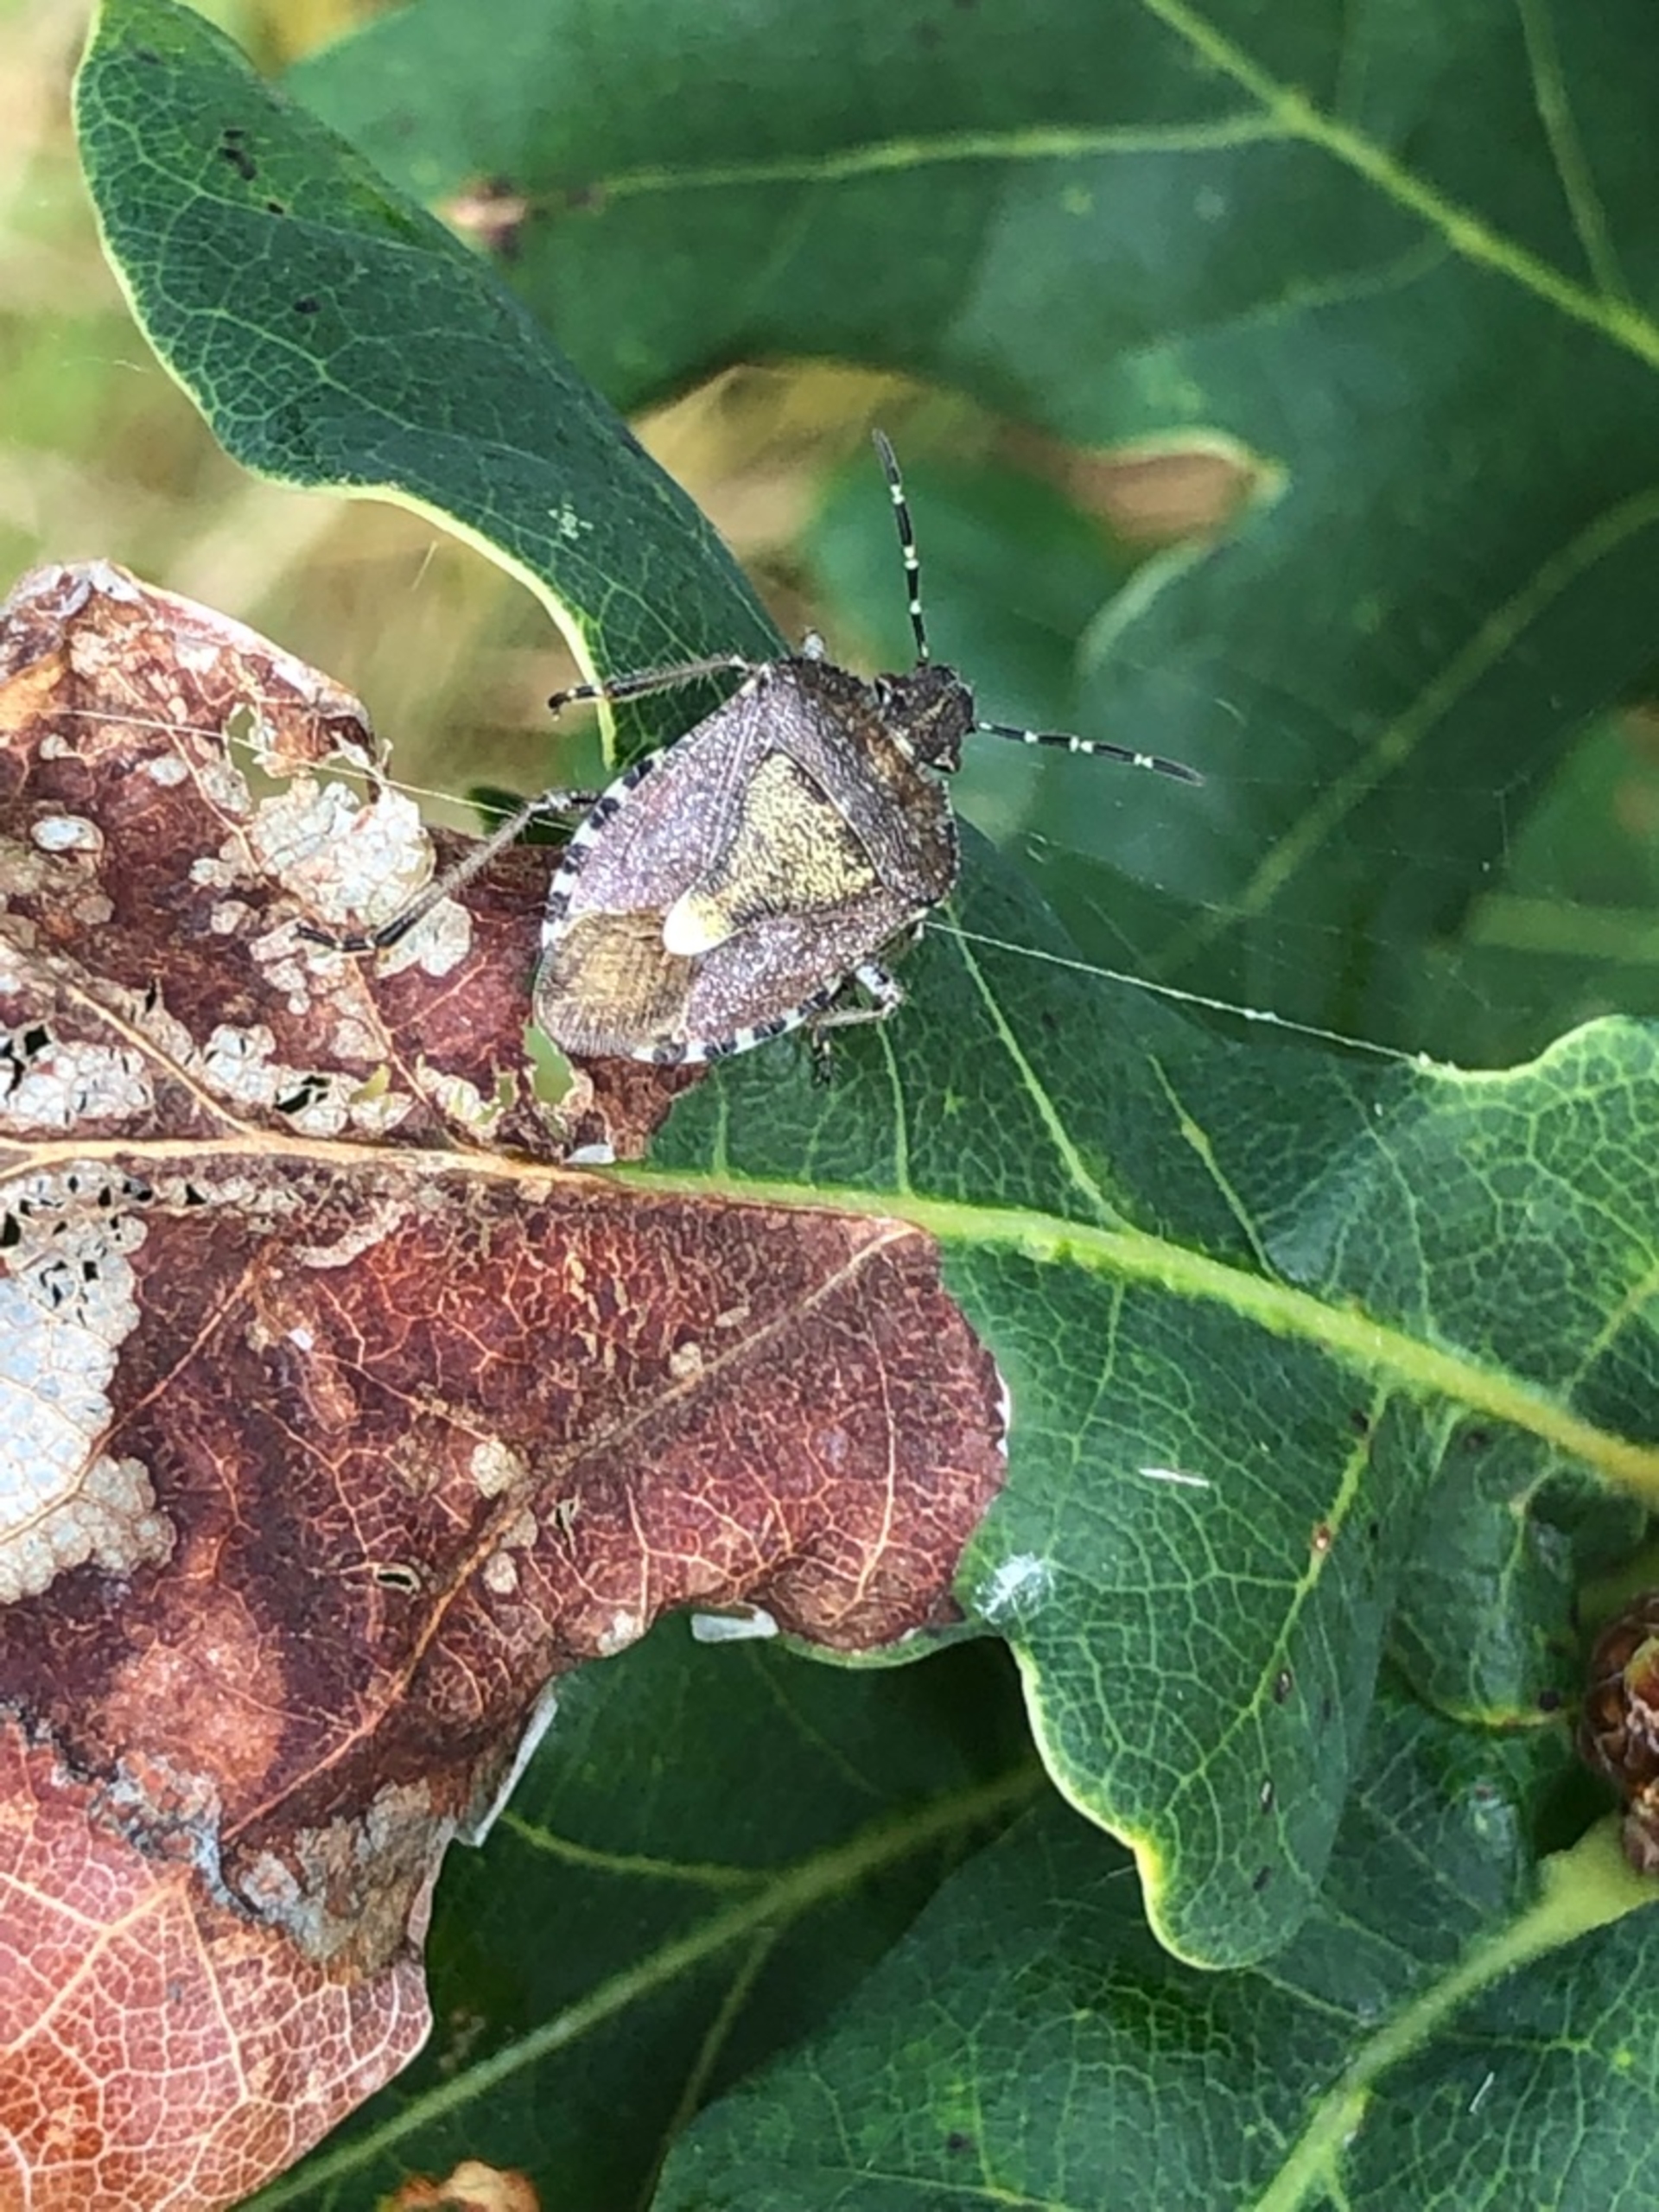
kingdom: Animalia
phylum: Arthropoda
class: Insecta
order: Hemiptera
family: Pentatomidae
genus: Dolycoris
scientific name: Dolycoris baccarum
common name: Almindelig bærtæge
